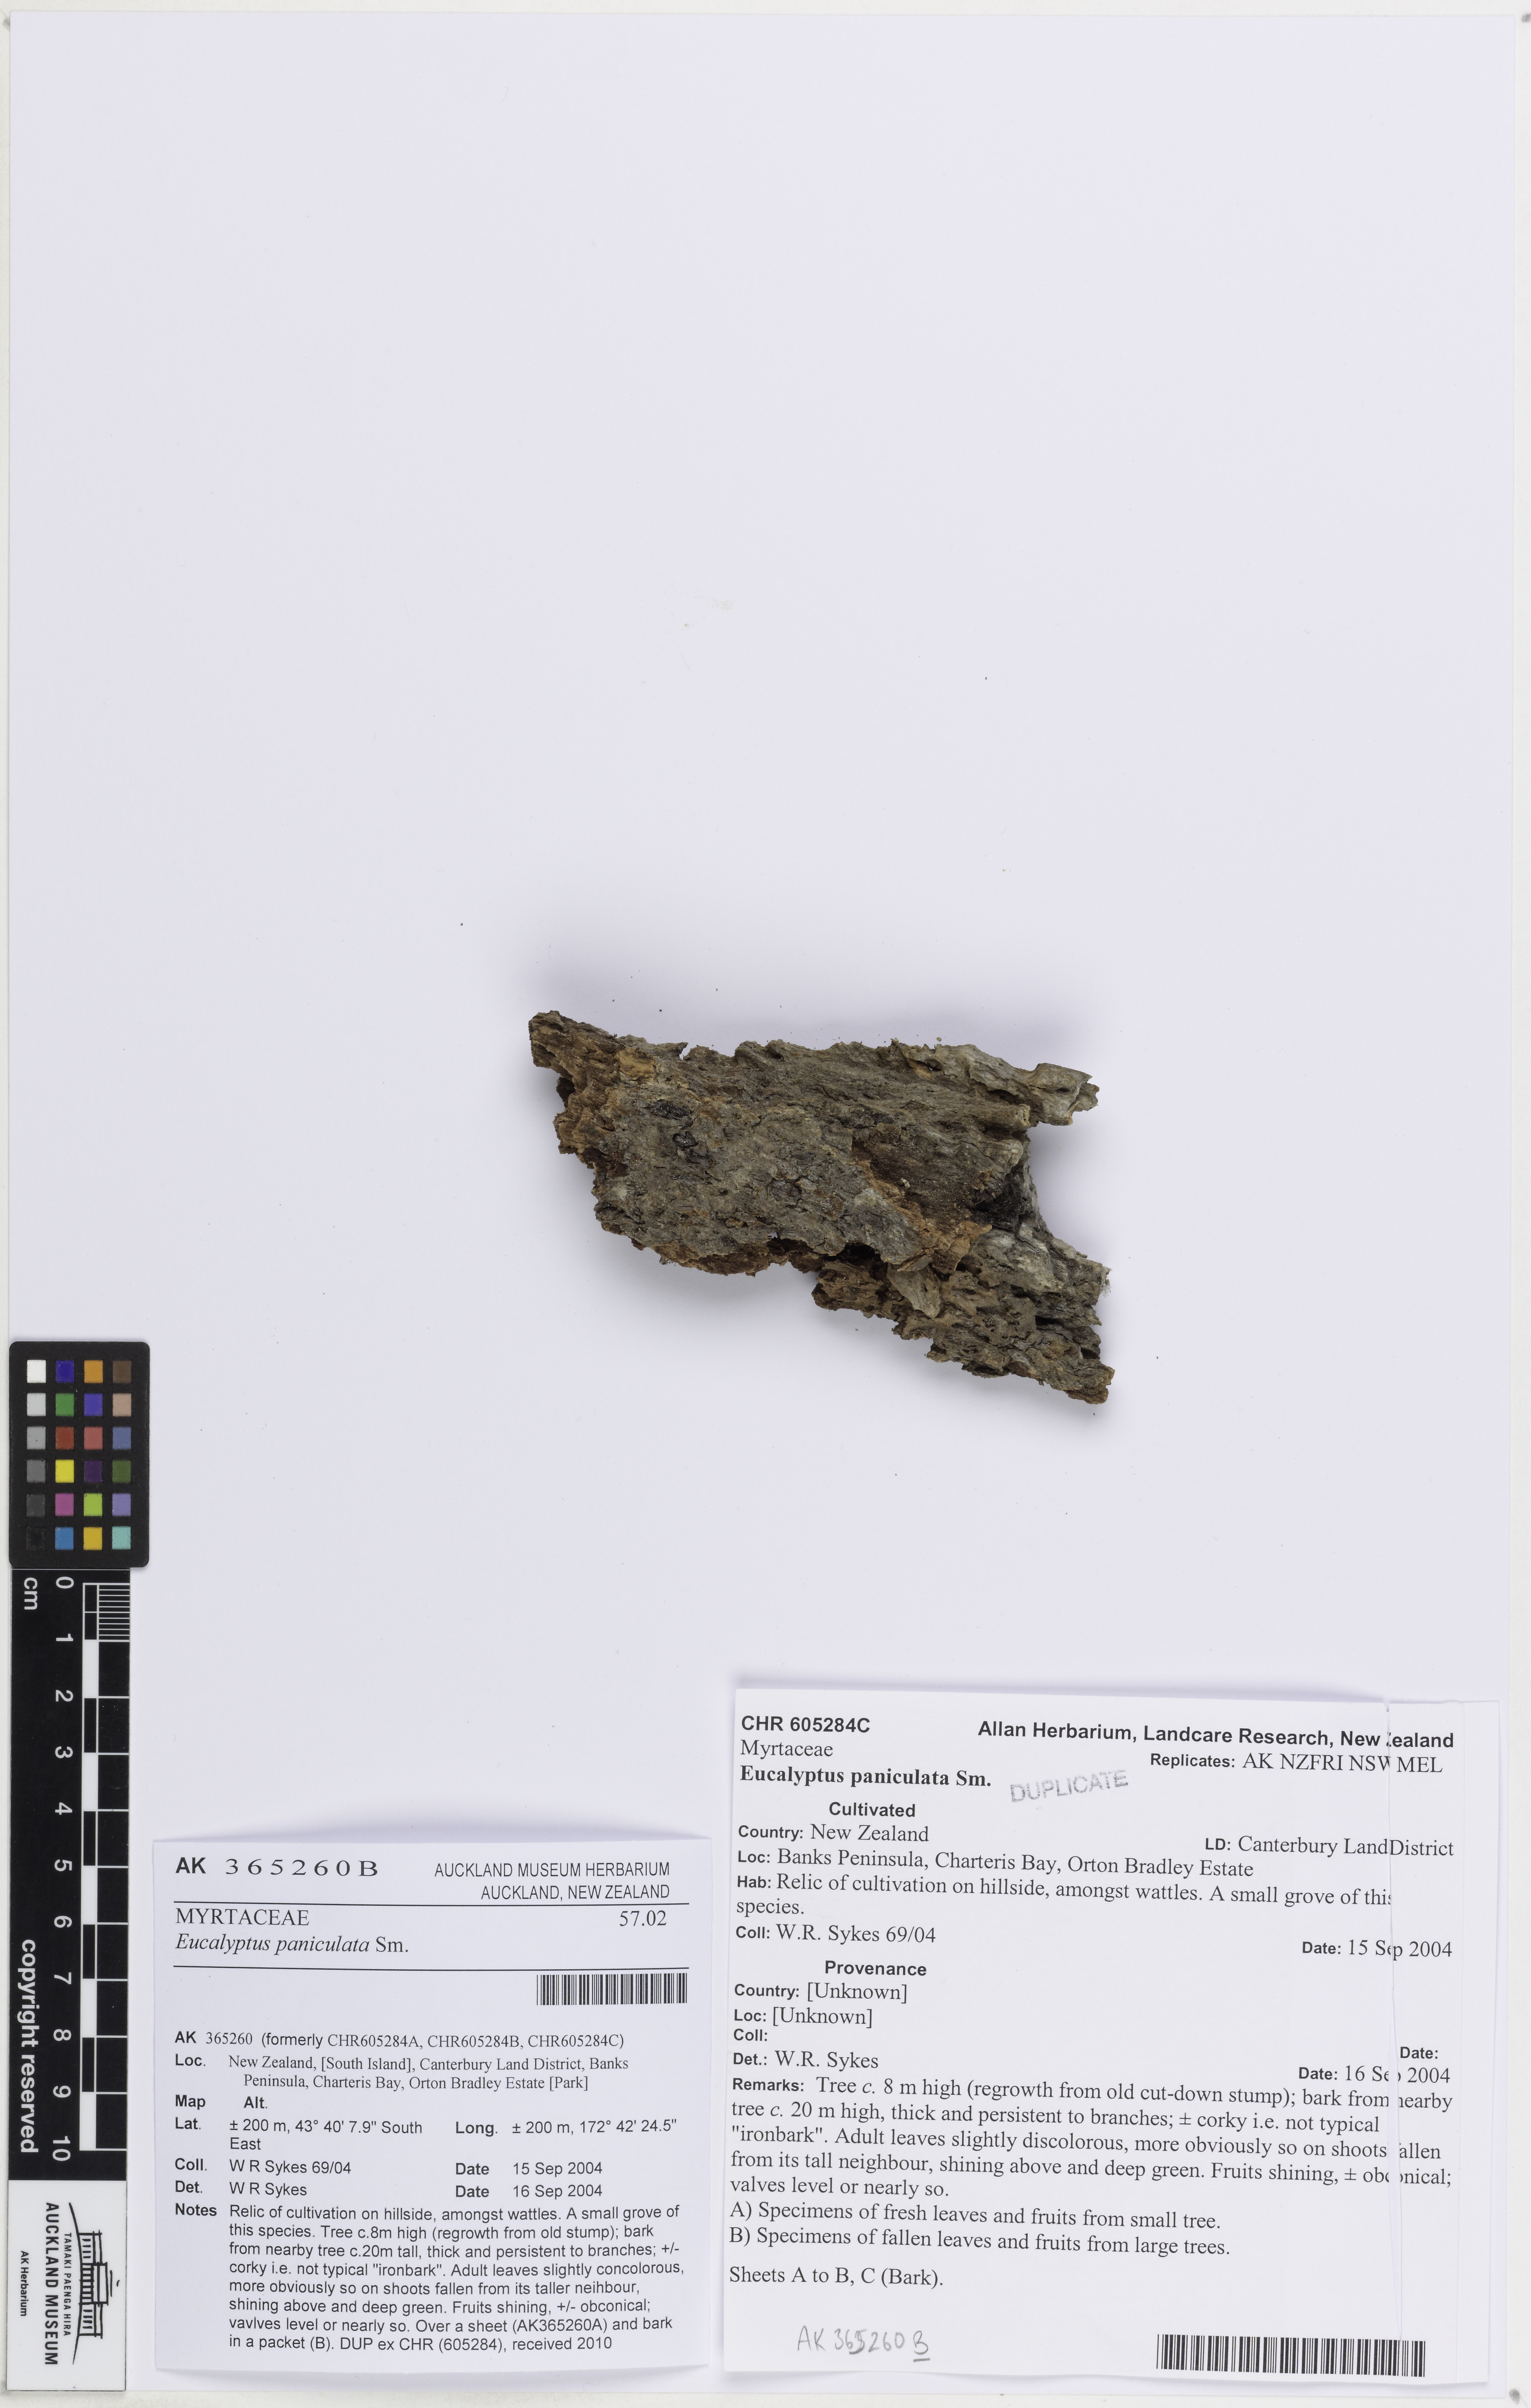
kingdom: Plantae
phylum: Tracheophyta
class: Magnoliopsida
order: Myrtales
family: Myrtaceae
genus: Eucalyptus
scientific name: Eucalyptus paniculata
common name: Gray ironbark
